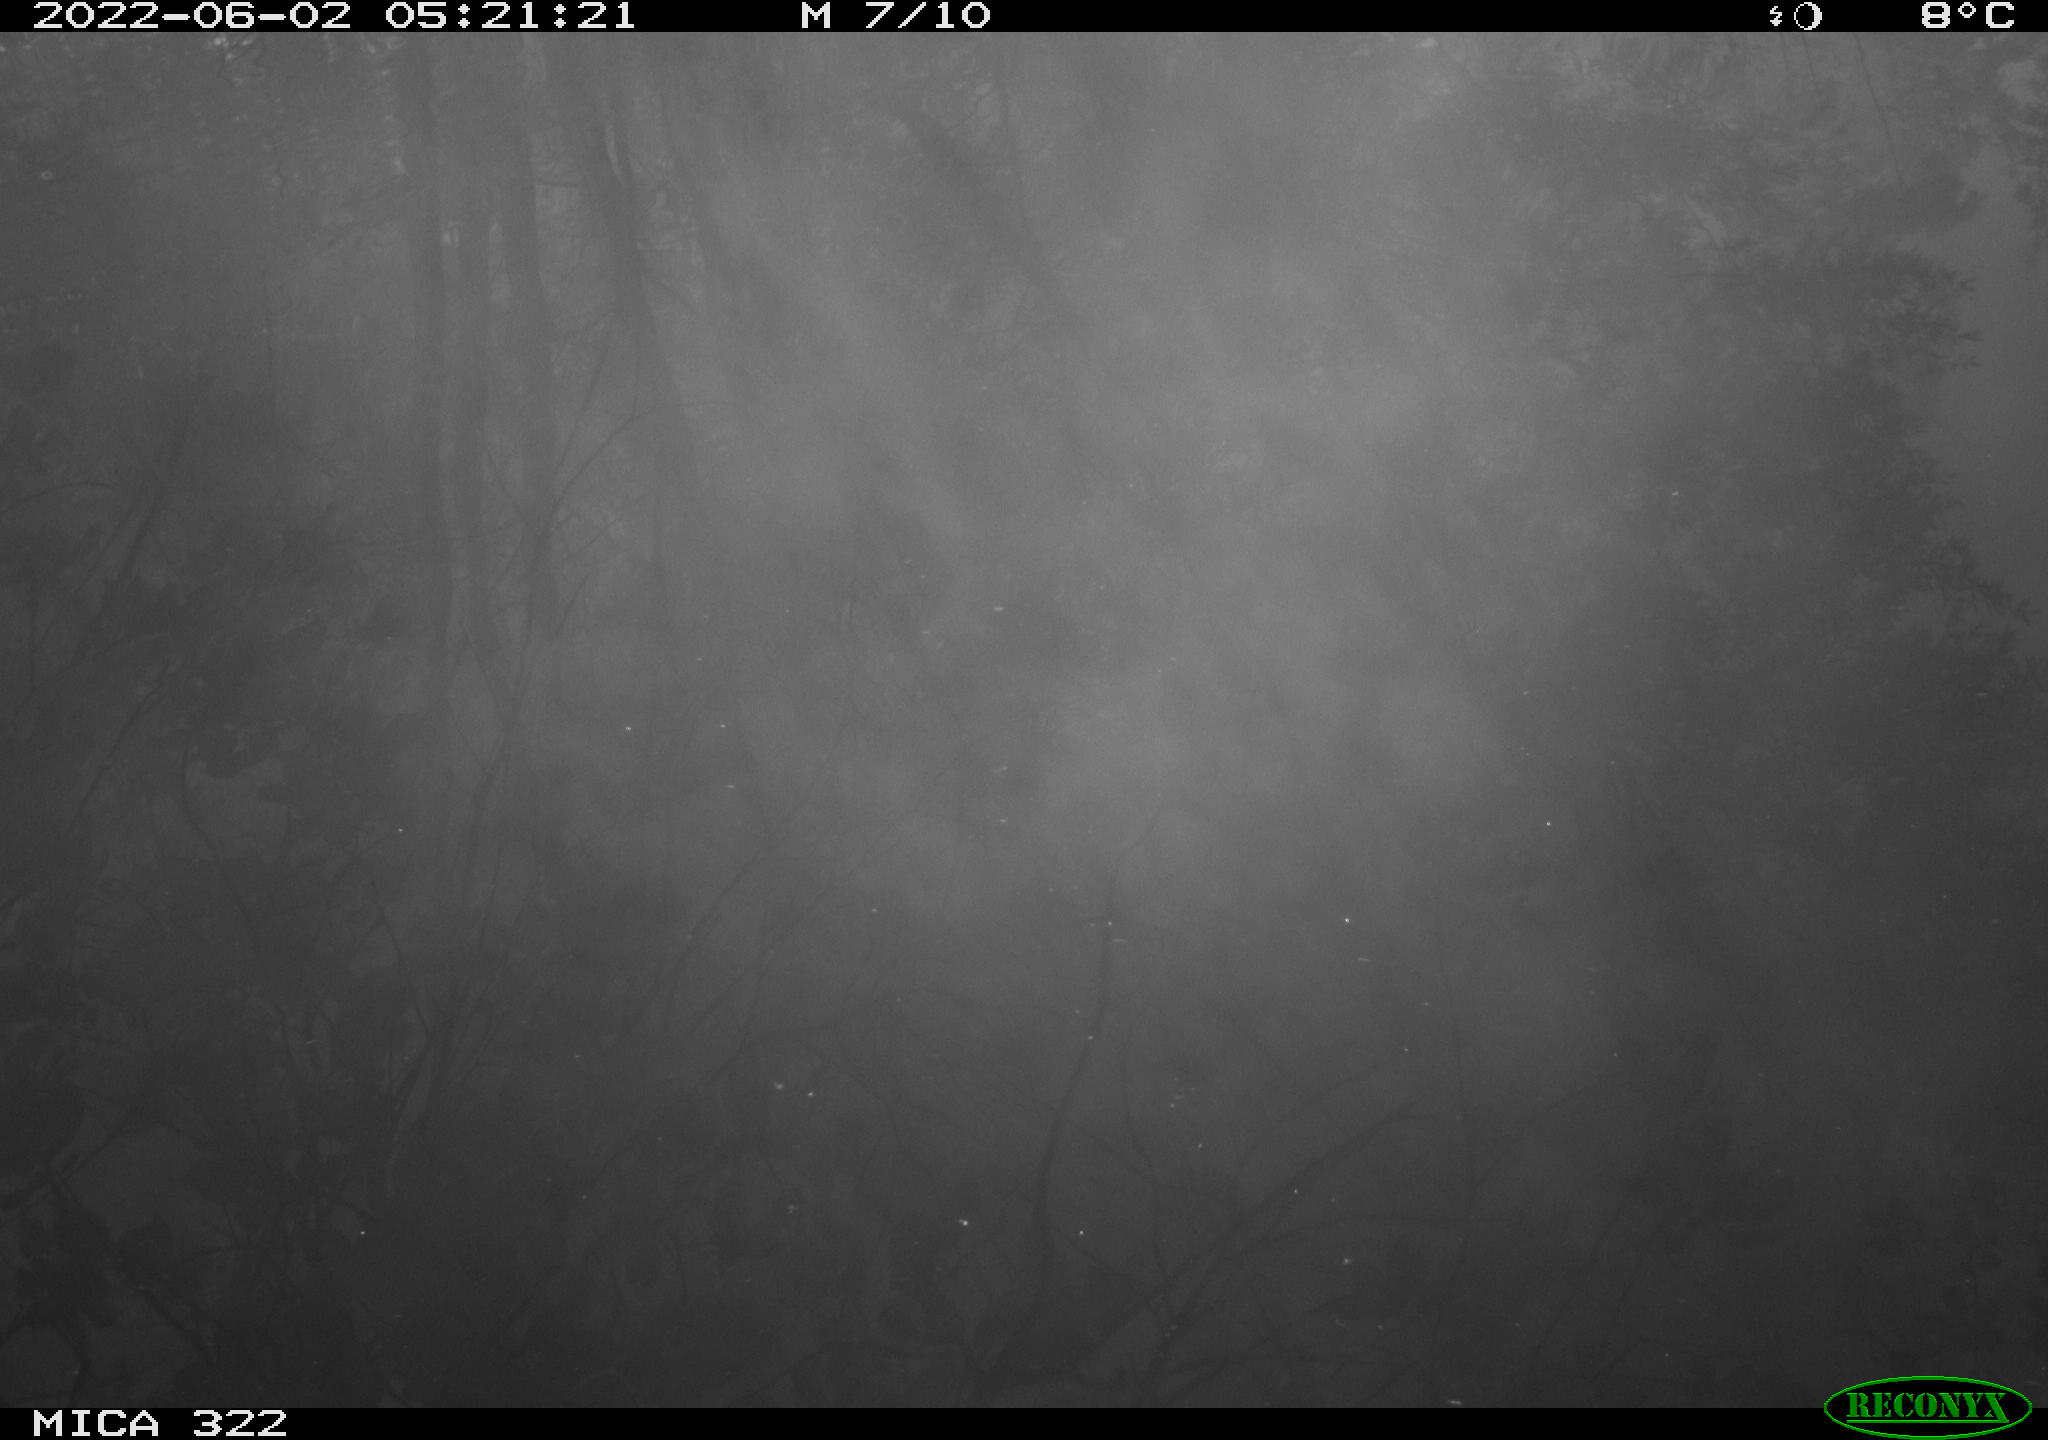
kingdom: Animalia
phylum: Chordata
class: Aves
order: Gruiformes
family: Rallidae
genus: Gallinula
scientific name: Gallinula chloropus
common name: Common moorhen
